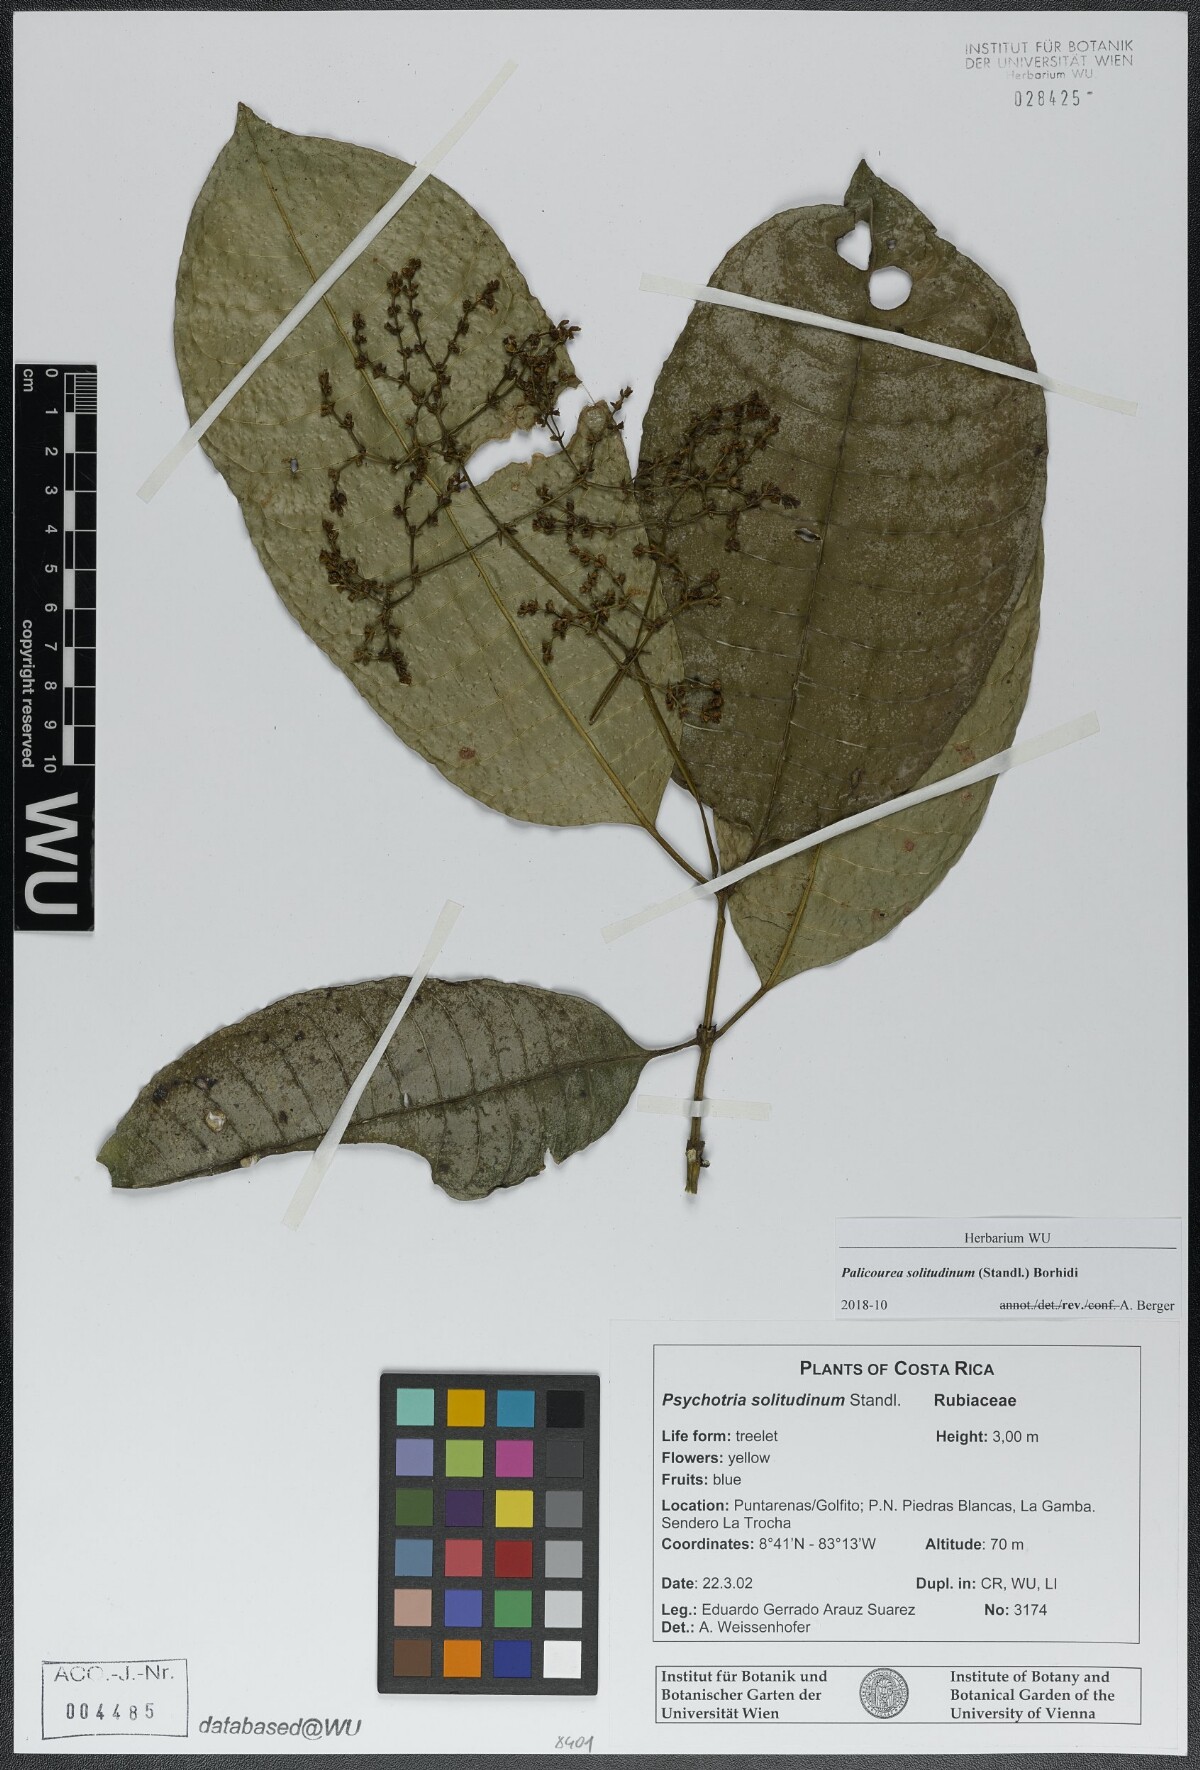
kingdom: Plantae
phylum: Tracheophyta
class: Magnoliopsida
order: Gentianales
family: Rubiaceae
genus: Palicourea
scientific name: Palicourea solitudinum
